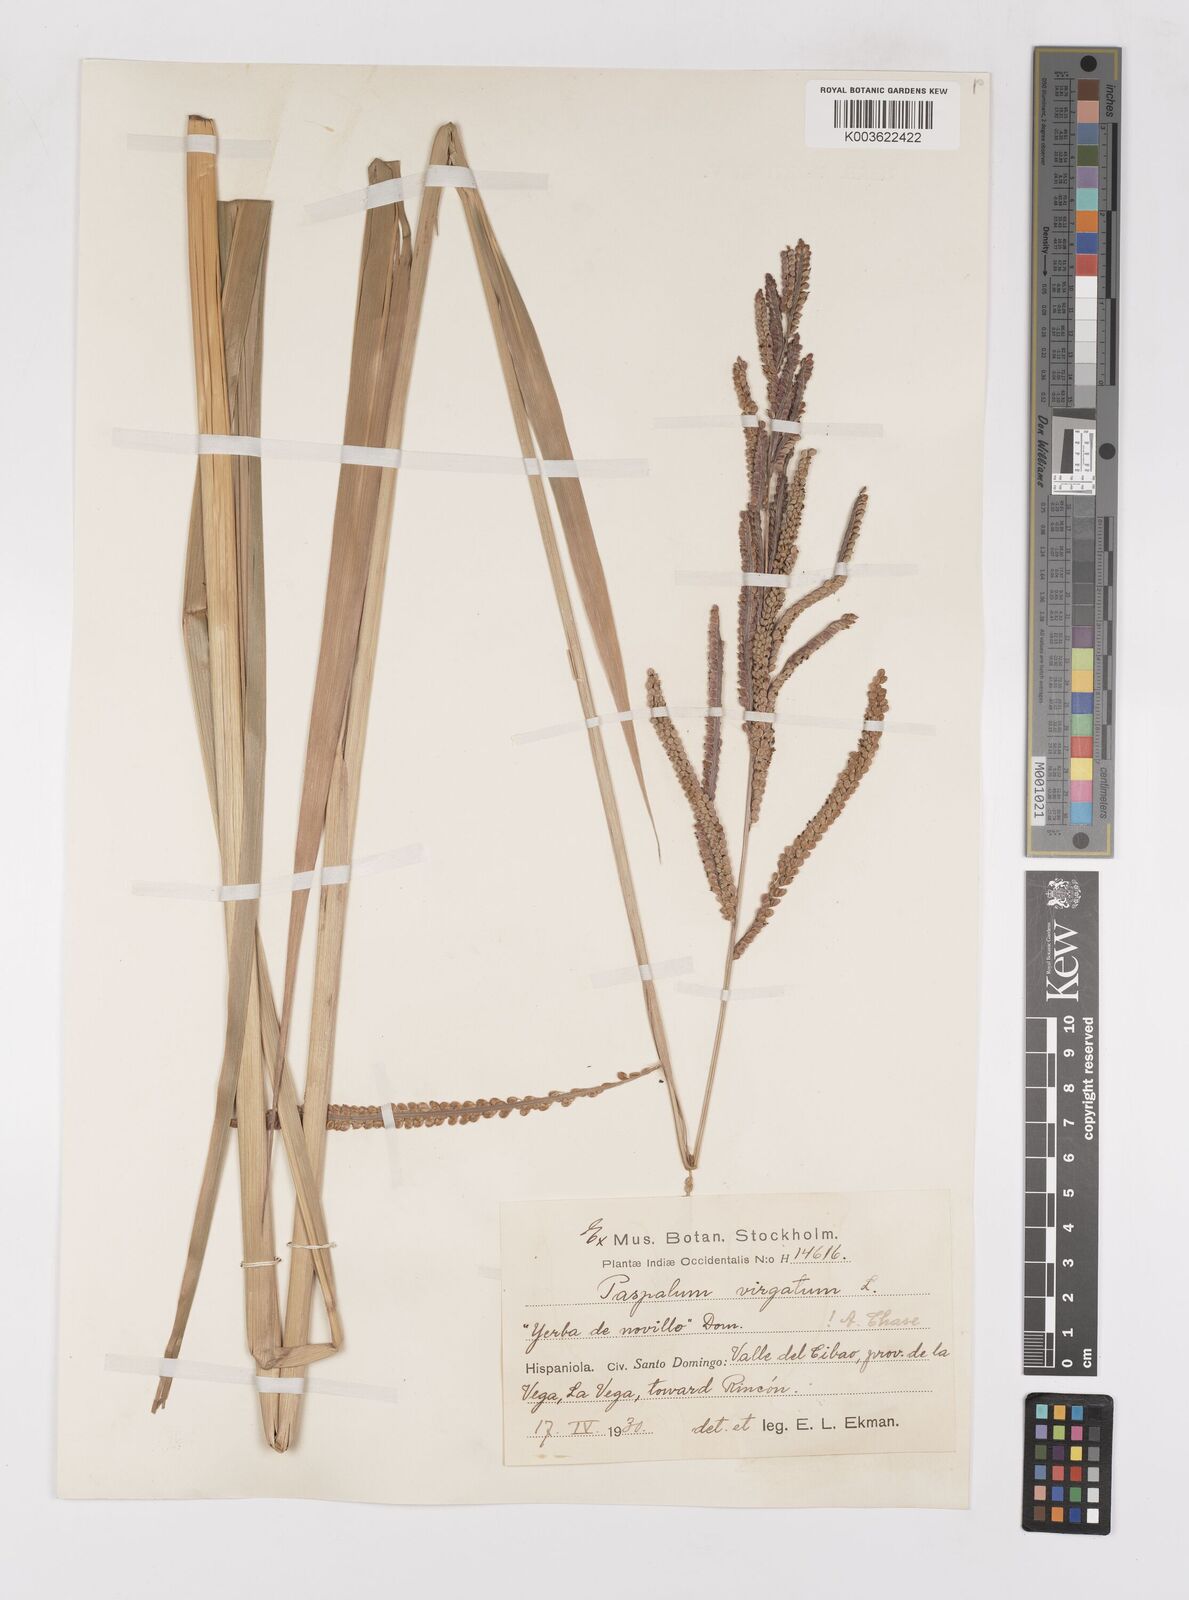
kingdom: Plantae
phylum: Tracheophyta
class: Liliopsida
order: Poales
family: Poaceae
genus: Paspalum
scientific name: Paspalum virgatum
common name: Talquezal
